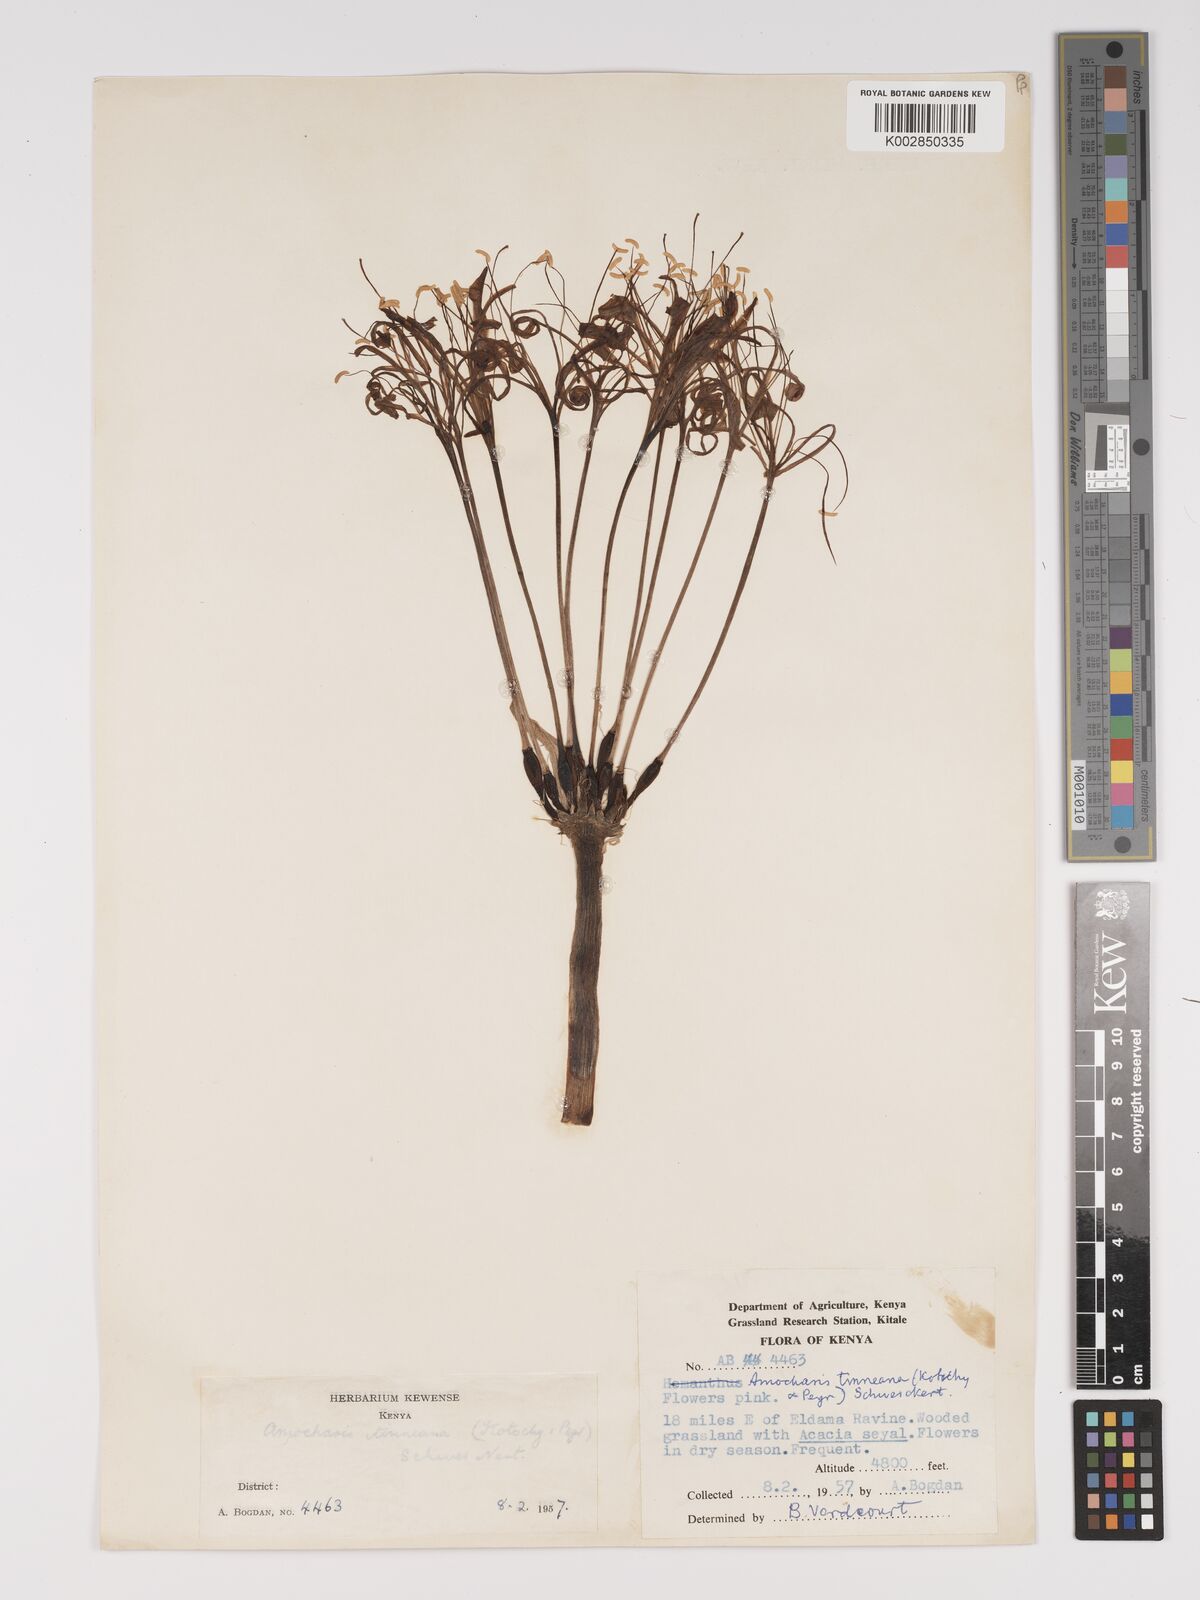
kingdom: Plantae
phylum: Tracheophyta
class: Liliopsida
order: Asparagales
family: Amaryllidaceae
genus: Ammocharis
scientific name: Ammocharis tinneana
